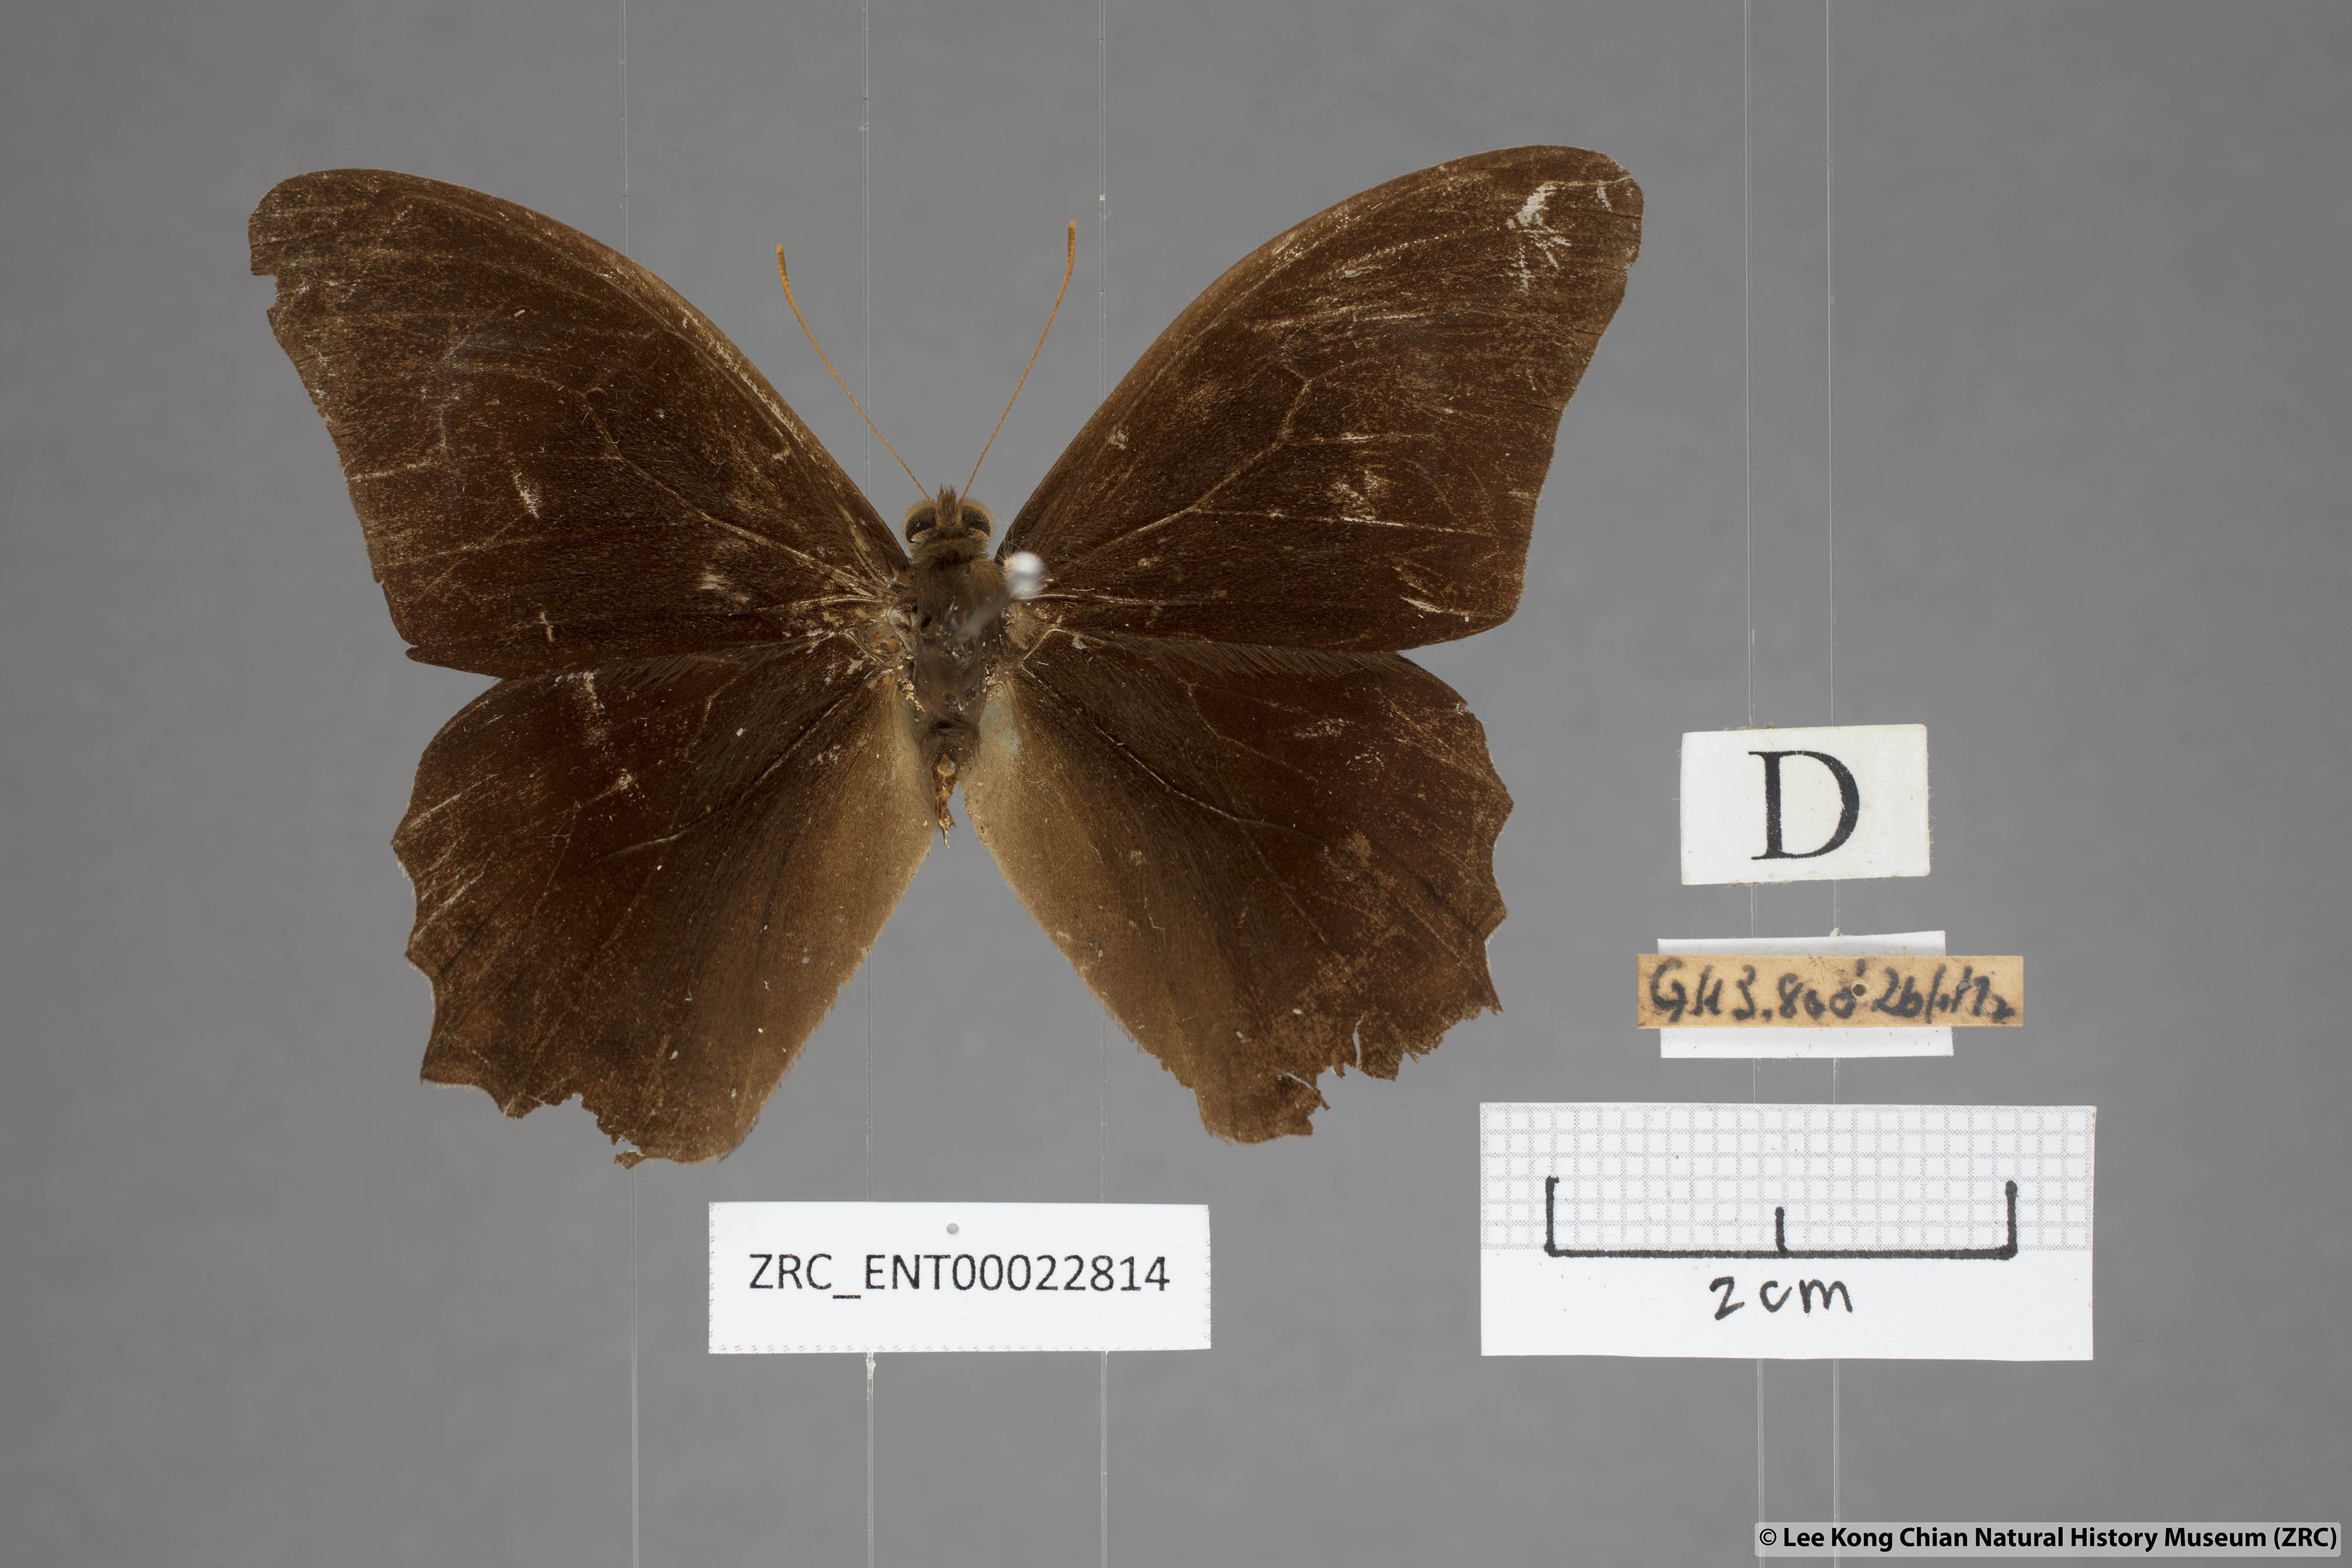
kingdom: Animalia
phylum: Arthropoda
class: Insecta
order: Lepidoptera
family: Nymphalidae
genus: Lethe
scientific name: Lethe chandica
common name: Angled red forester
